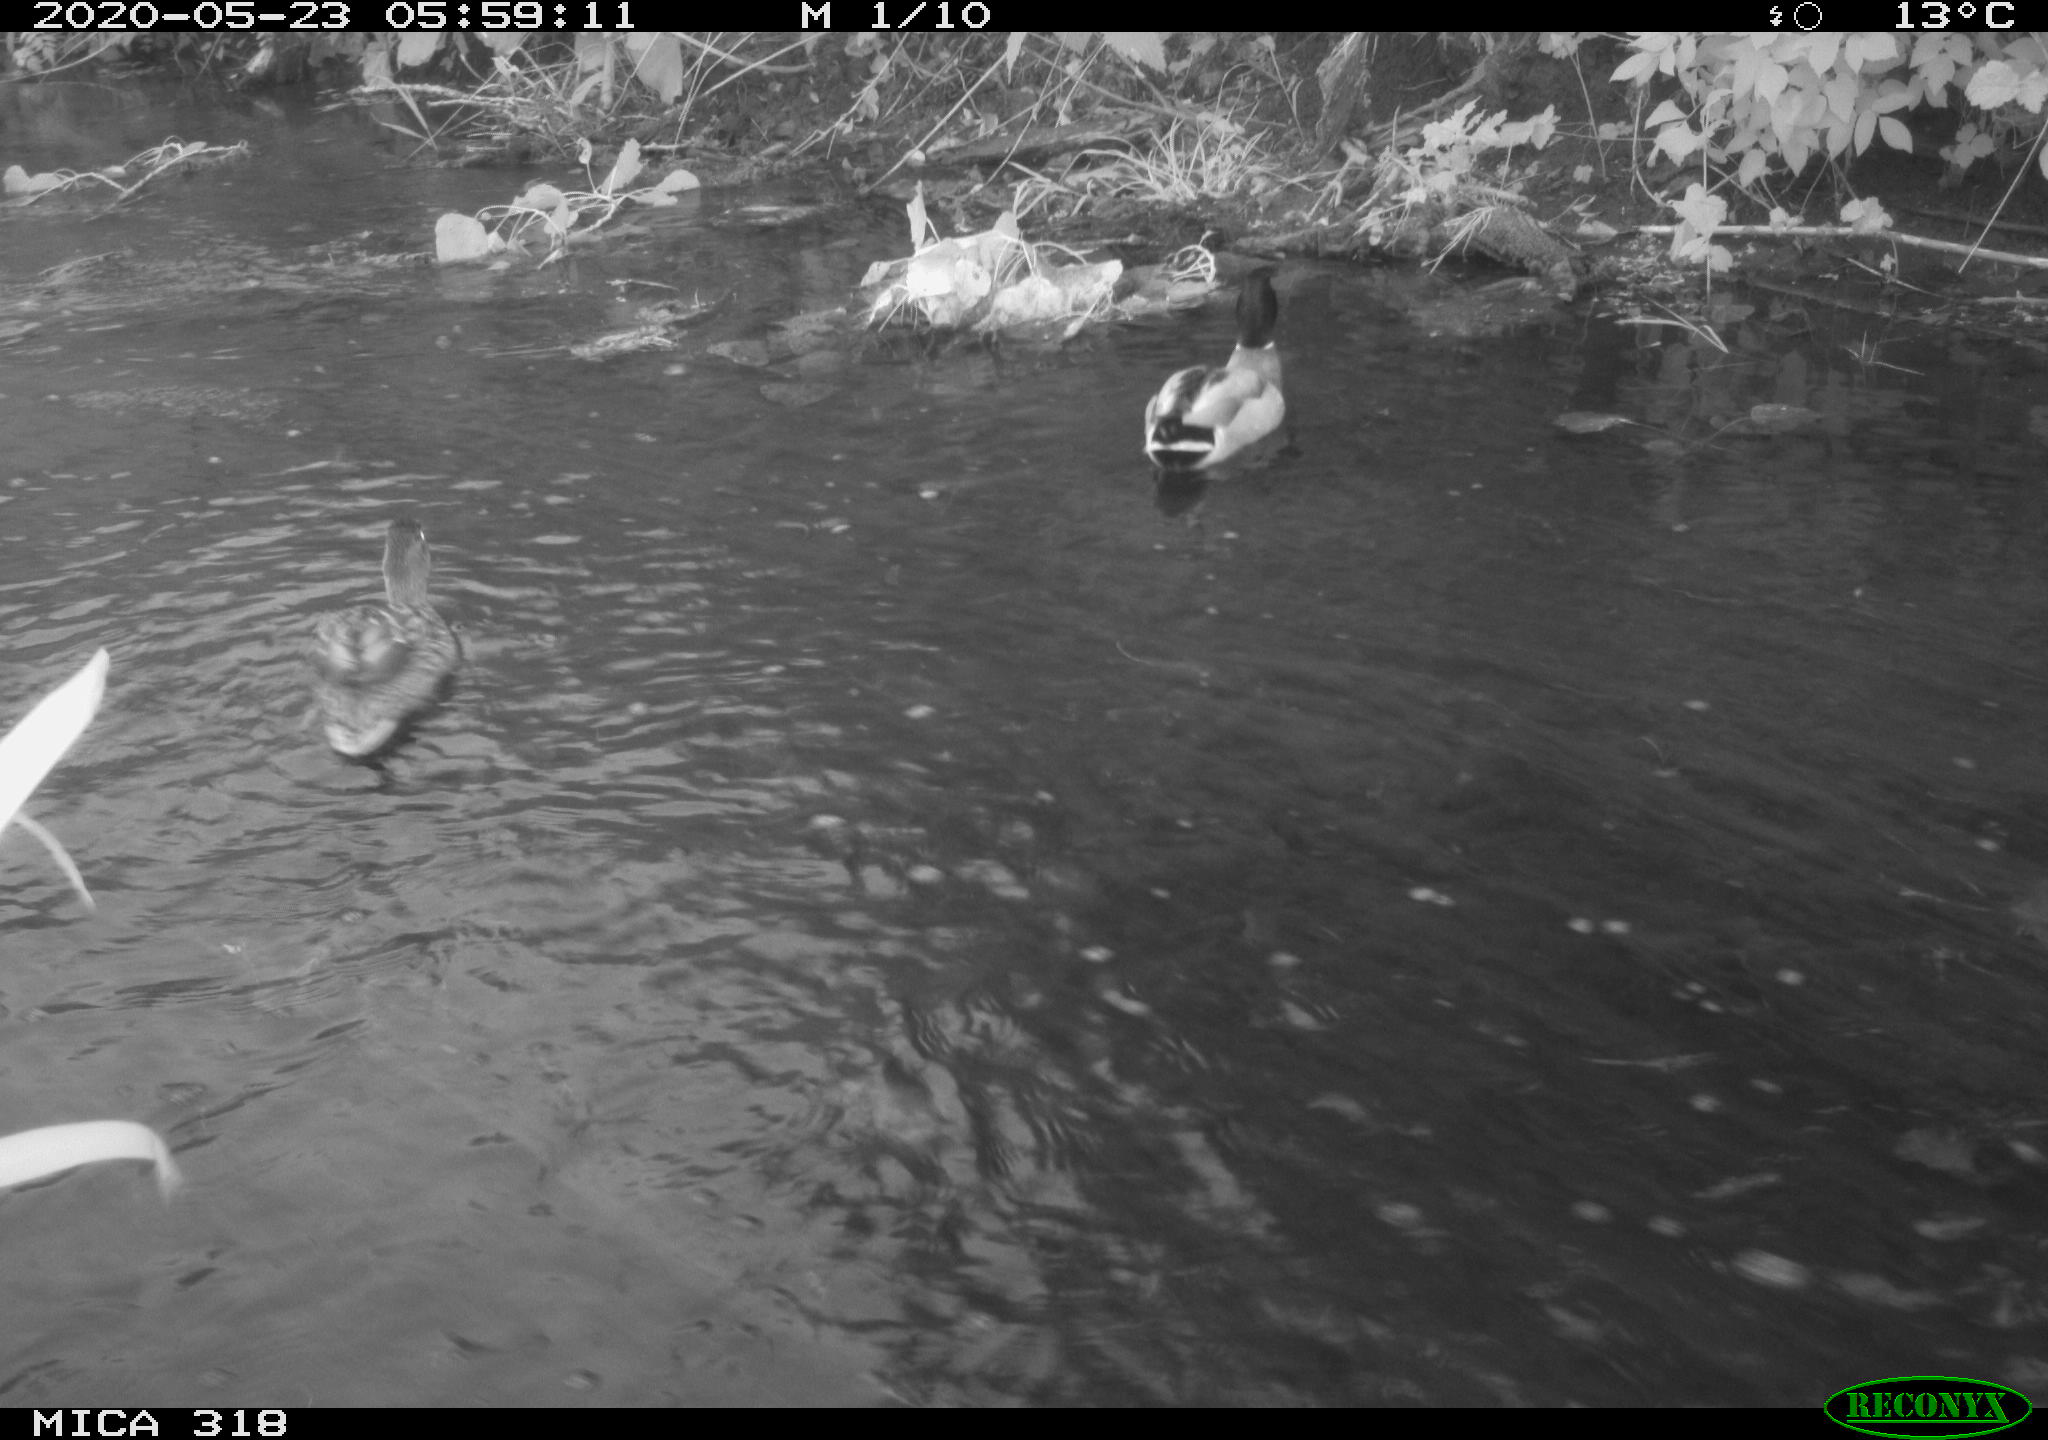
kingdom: Animalia
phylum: Chordata
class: Aves
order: Anseriformes
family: Anatidae
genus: Anas
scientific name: Anas platyrhynchos
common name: Mallard
